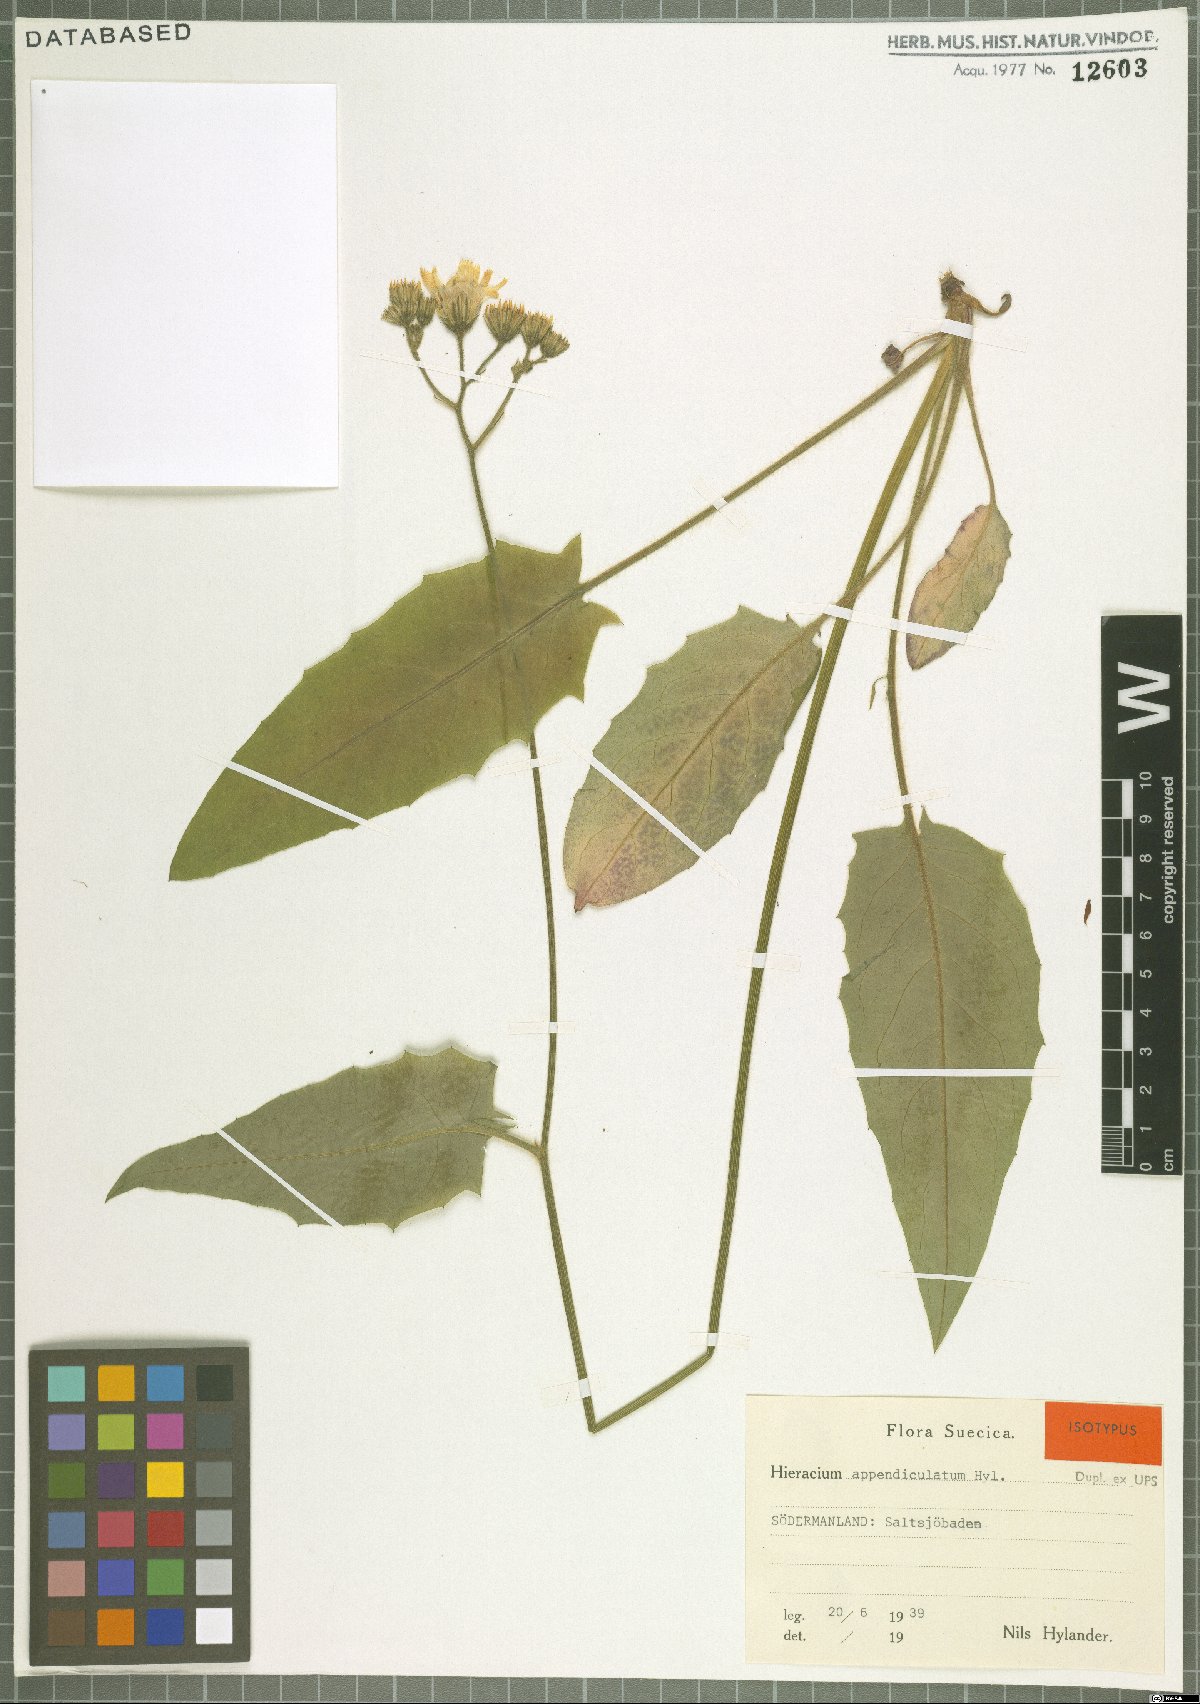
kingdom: Plantae
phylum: Tracheophyta
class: Magnoliopsida
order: Asterales
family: Asteraceae
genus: Hieracium
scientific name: Hieracium appendiculatum
